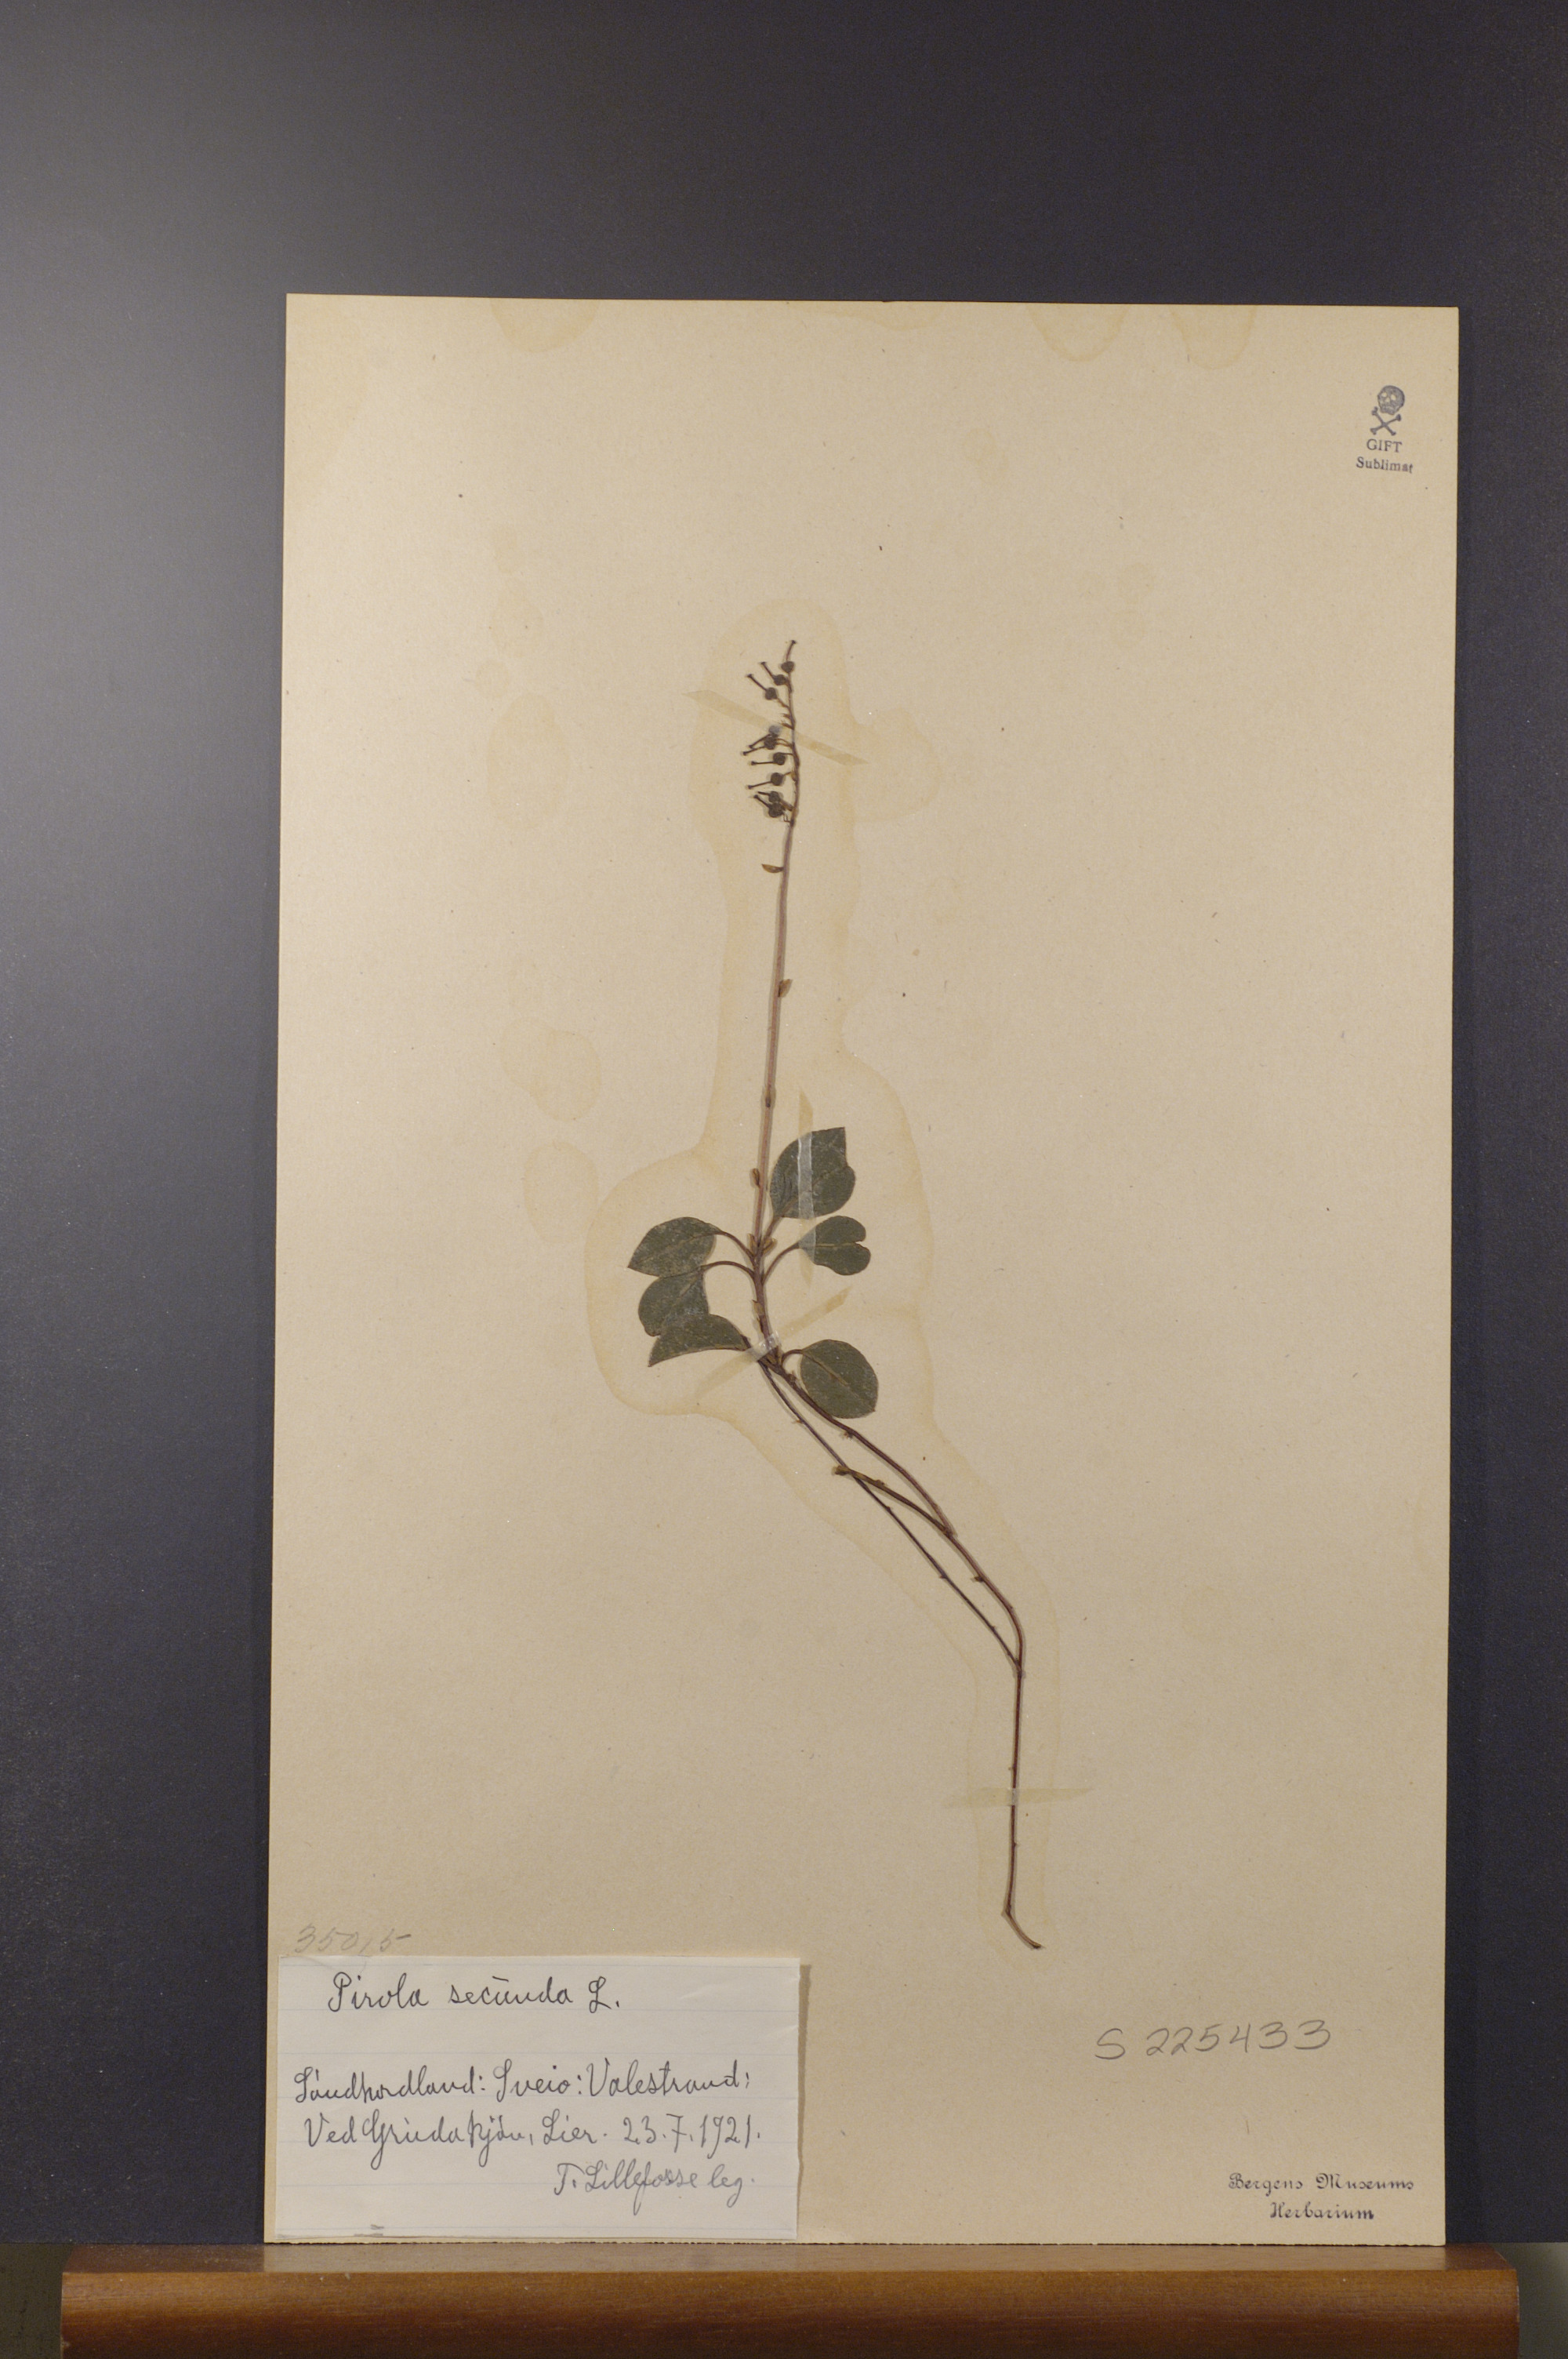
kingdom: Plantae
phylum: Tracheophyta
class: Magnoliopsida
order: Ericales
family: Ericaceae
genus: Orthilia
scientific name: Orthilia secunda
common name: One-sided orthilia
